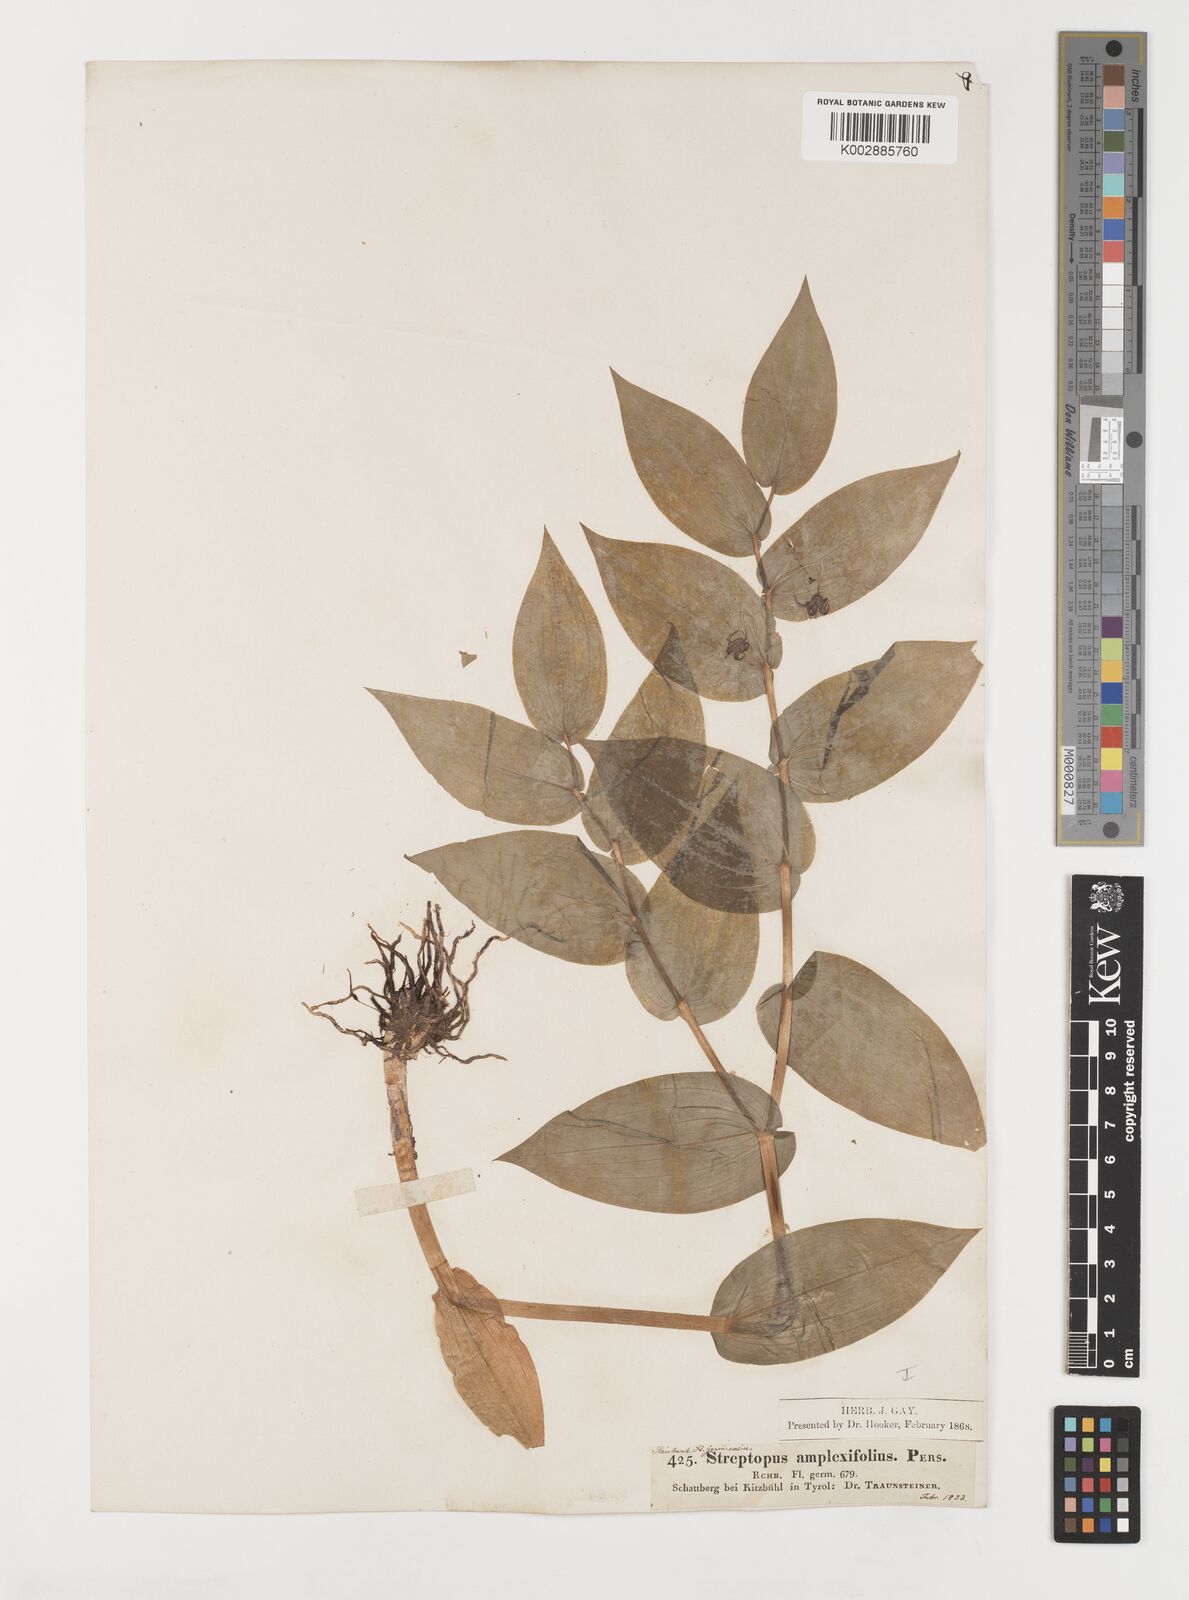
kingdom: Plantae
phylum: Tracheophyta
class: Liliopsida
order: Liliales
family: Liliaceae
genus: Streptopus
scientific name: Streptopus amplexifolius
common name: Clasp twisted stalk
